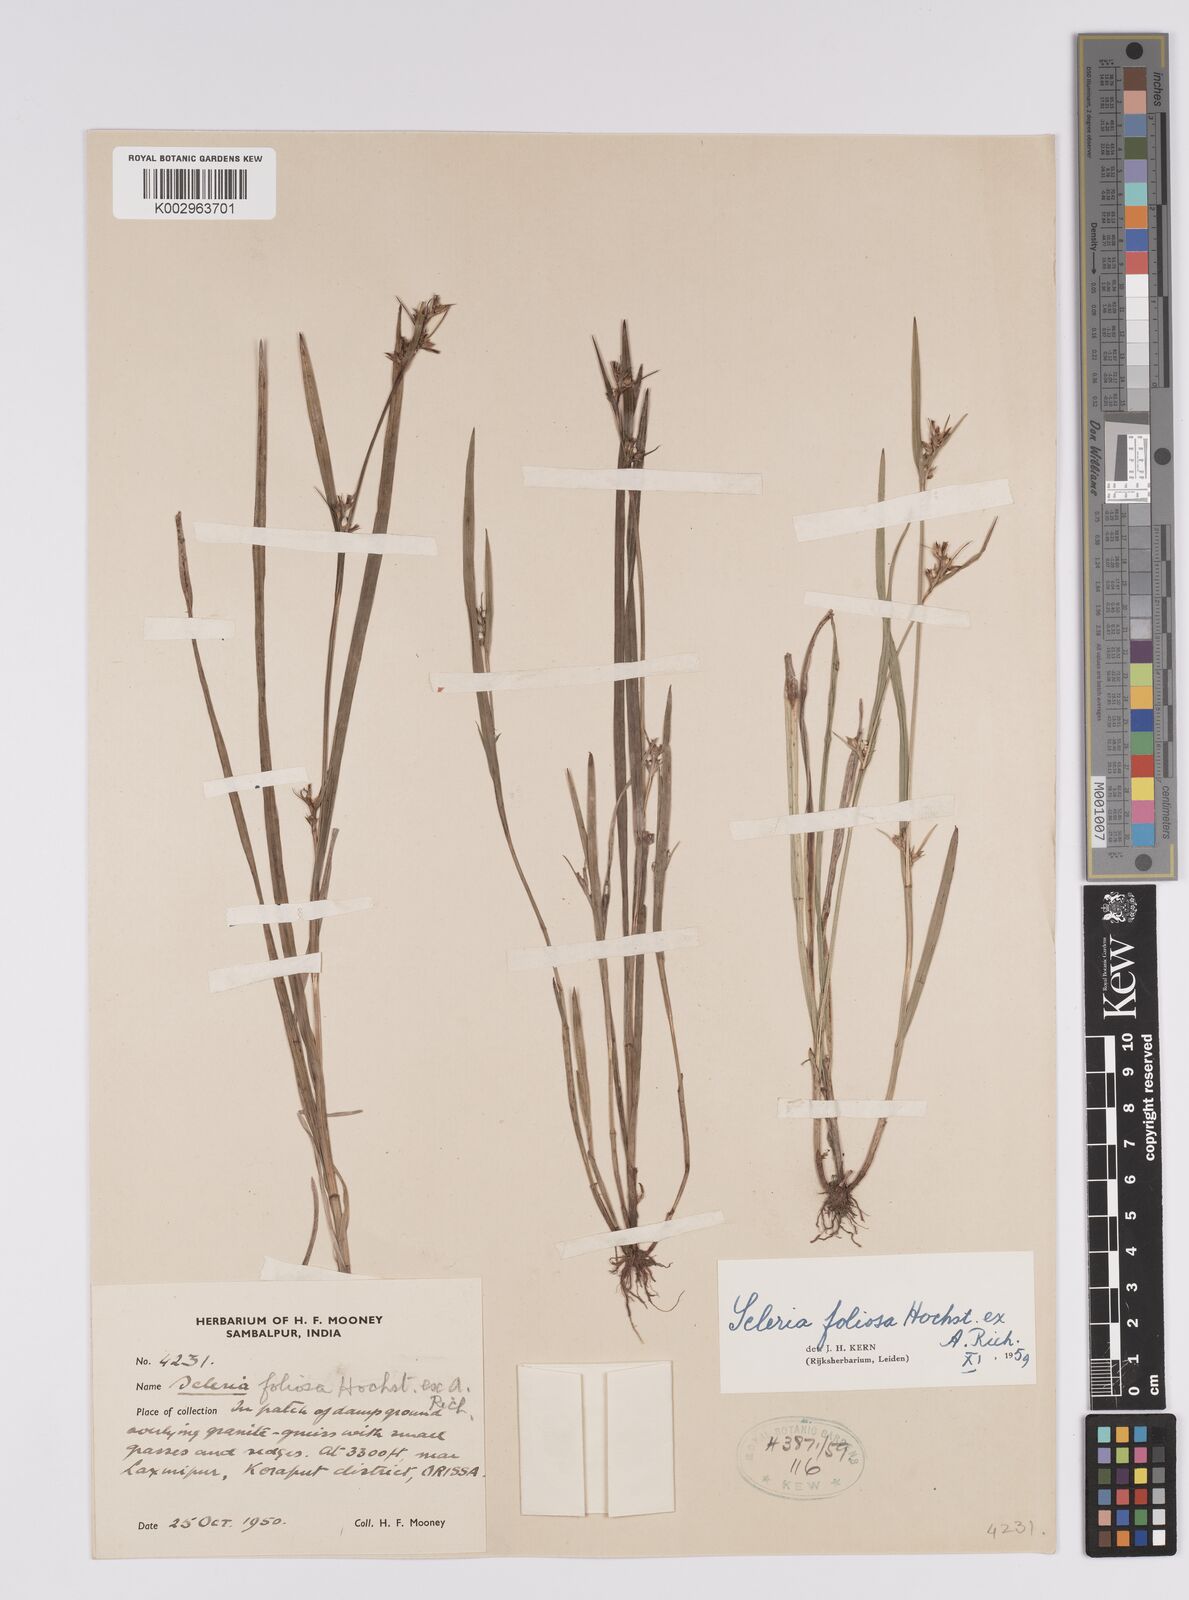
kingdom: Plantae
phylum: Tracheophyta
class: Liliopsida
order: Poales
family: Cyperaceae
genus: Scleria
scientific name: Scleria foliosa
